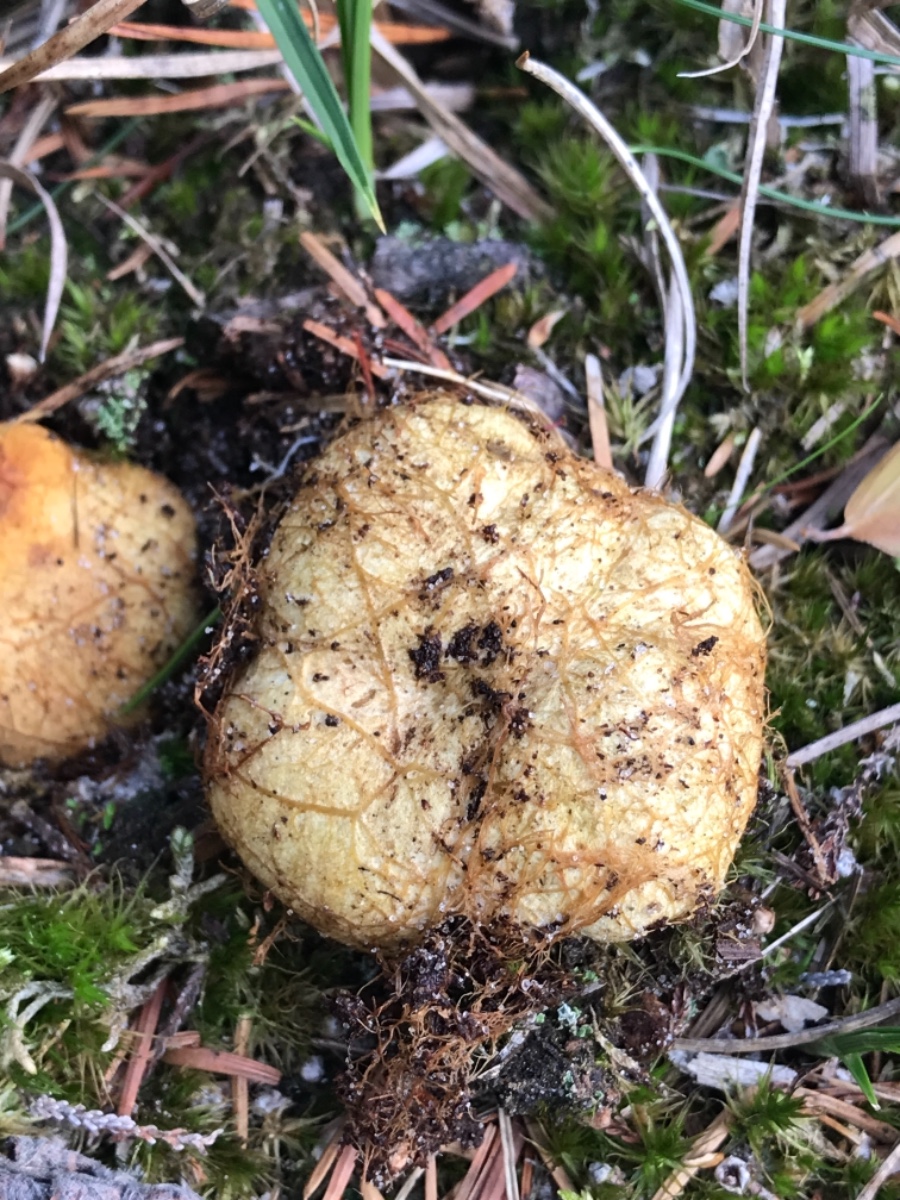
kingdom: Fungi
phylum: Basidiomycota
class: Agaricomycetes
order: Boletales
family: Rhizopogonaceae
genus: Rhizopogon
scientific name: Rhizopogon obtextus
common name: gul skægtrøffel
